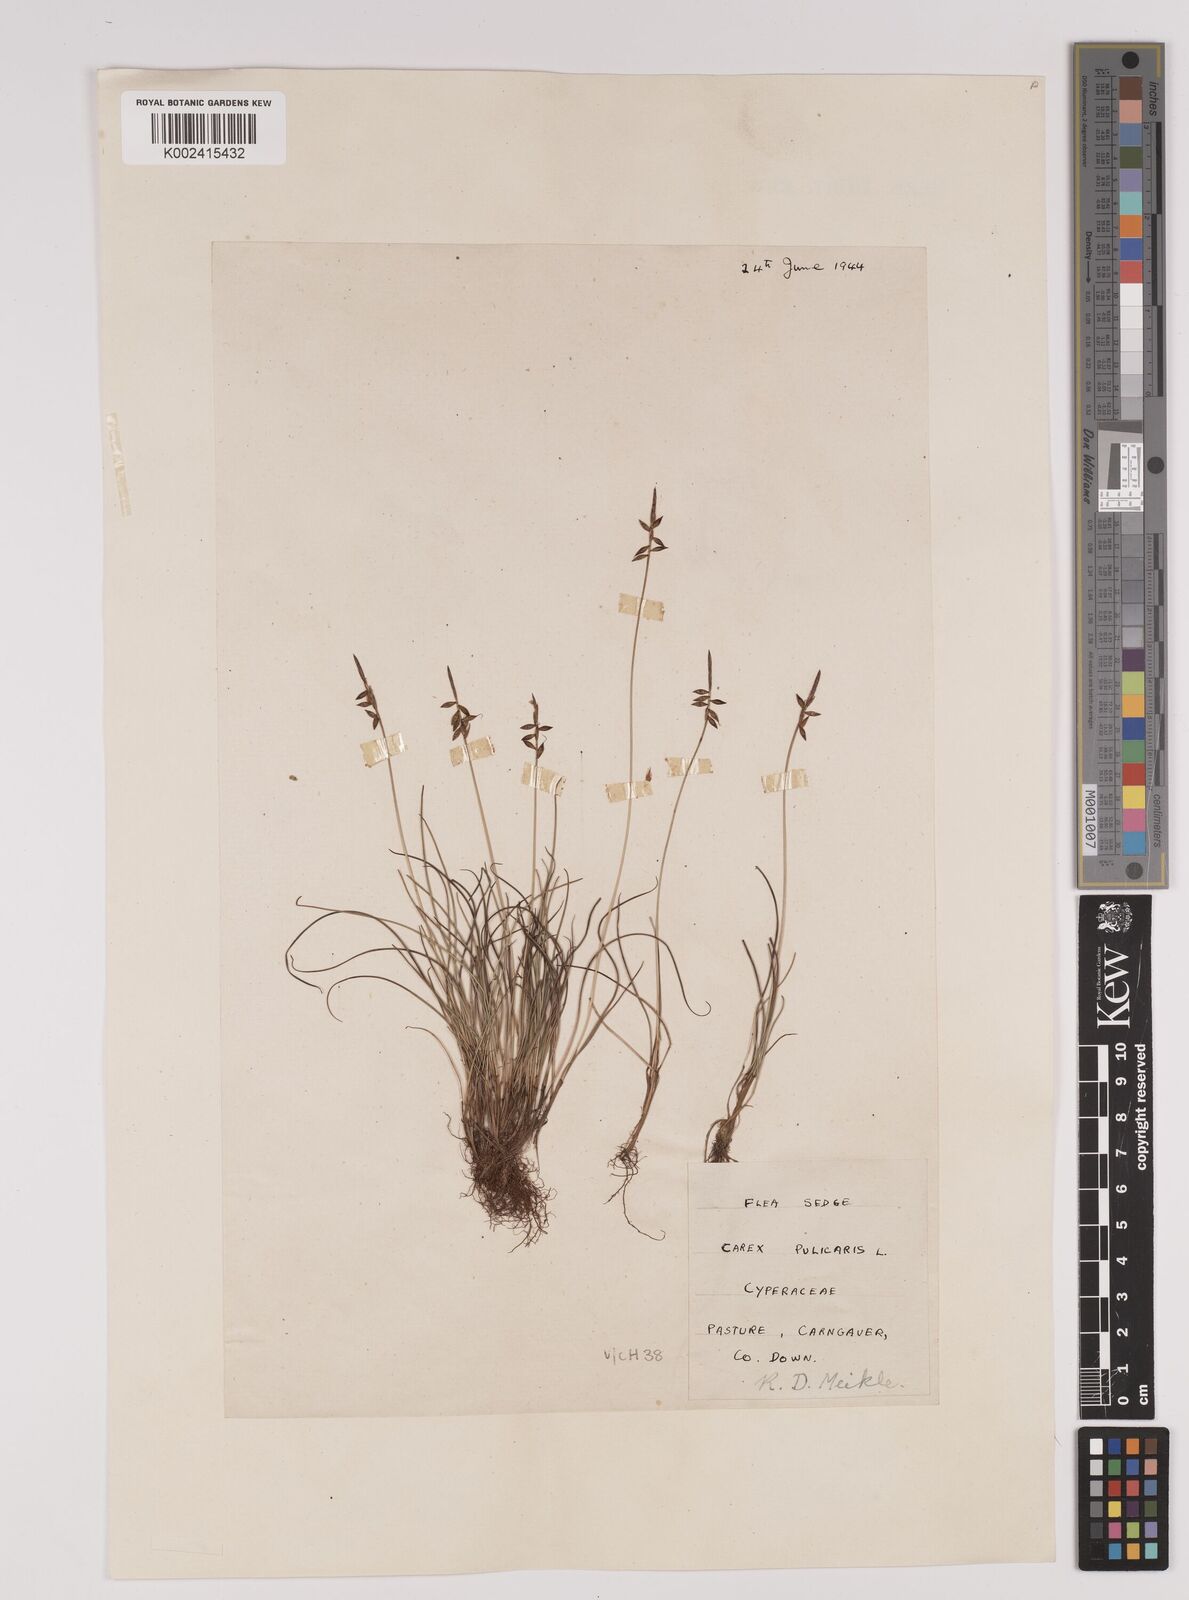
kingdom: Plantae
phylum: Tracheophyta
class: Liliopsida
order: Poales
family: Cyperaceae
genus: Carex
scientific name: Carex pulicaris
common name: Flea sedge
